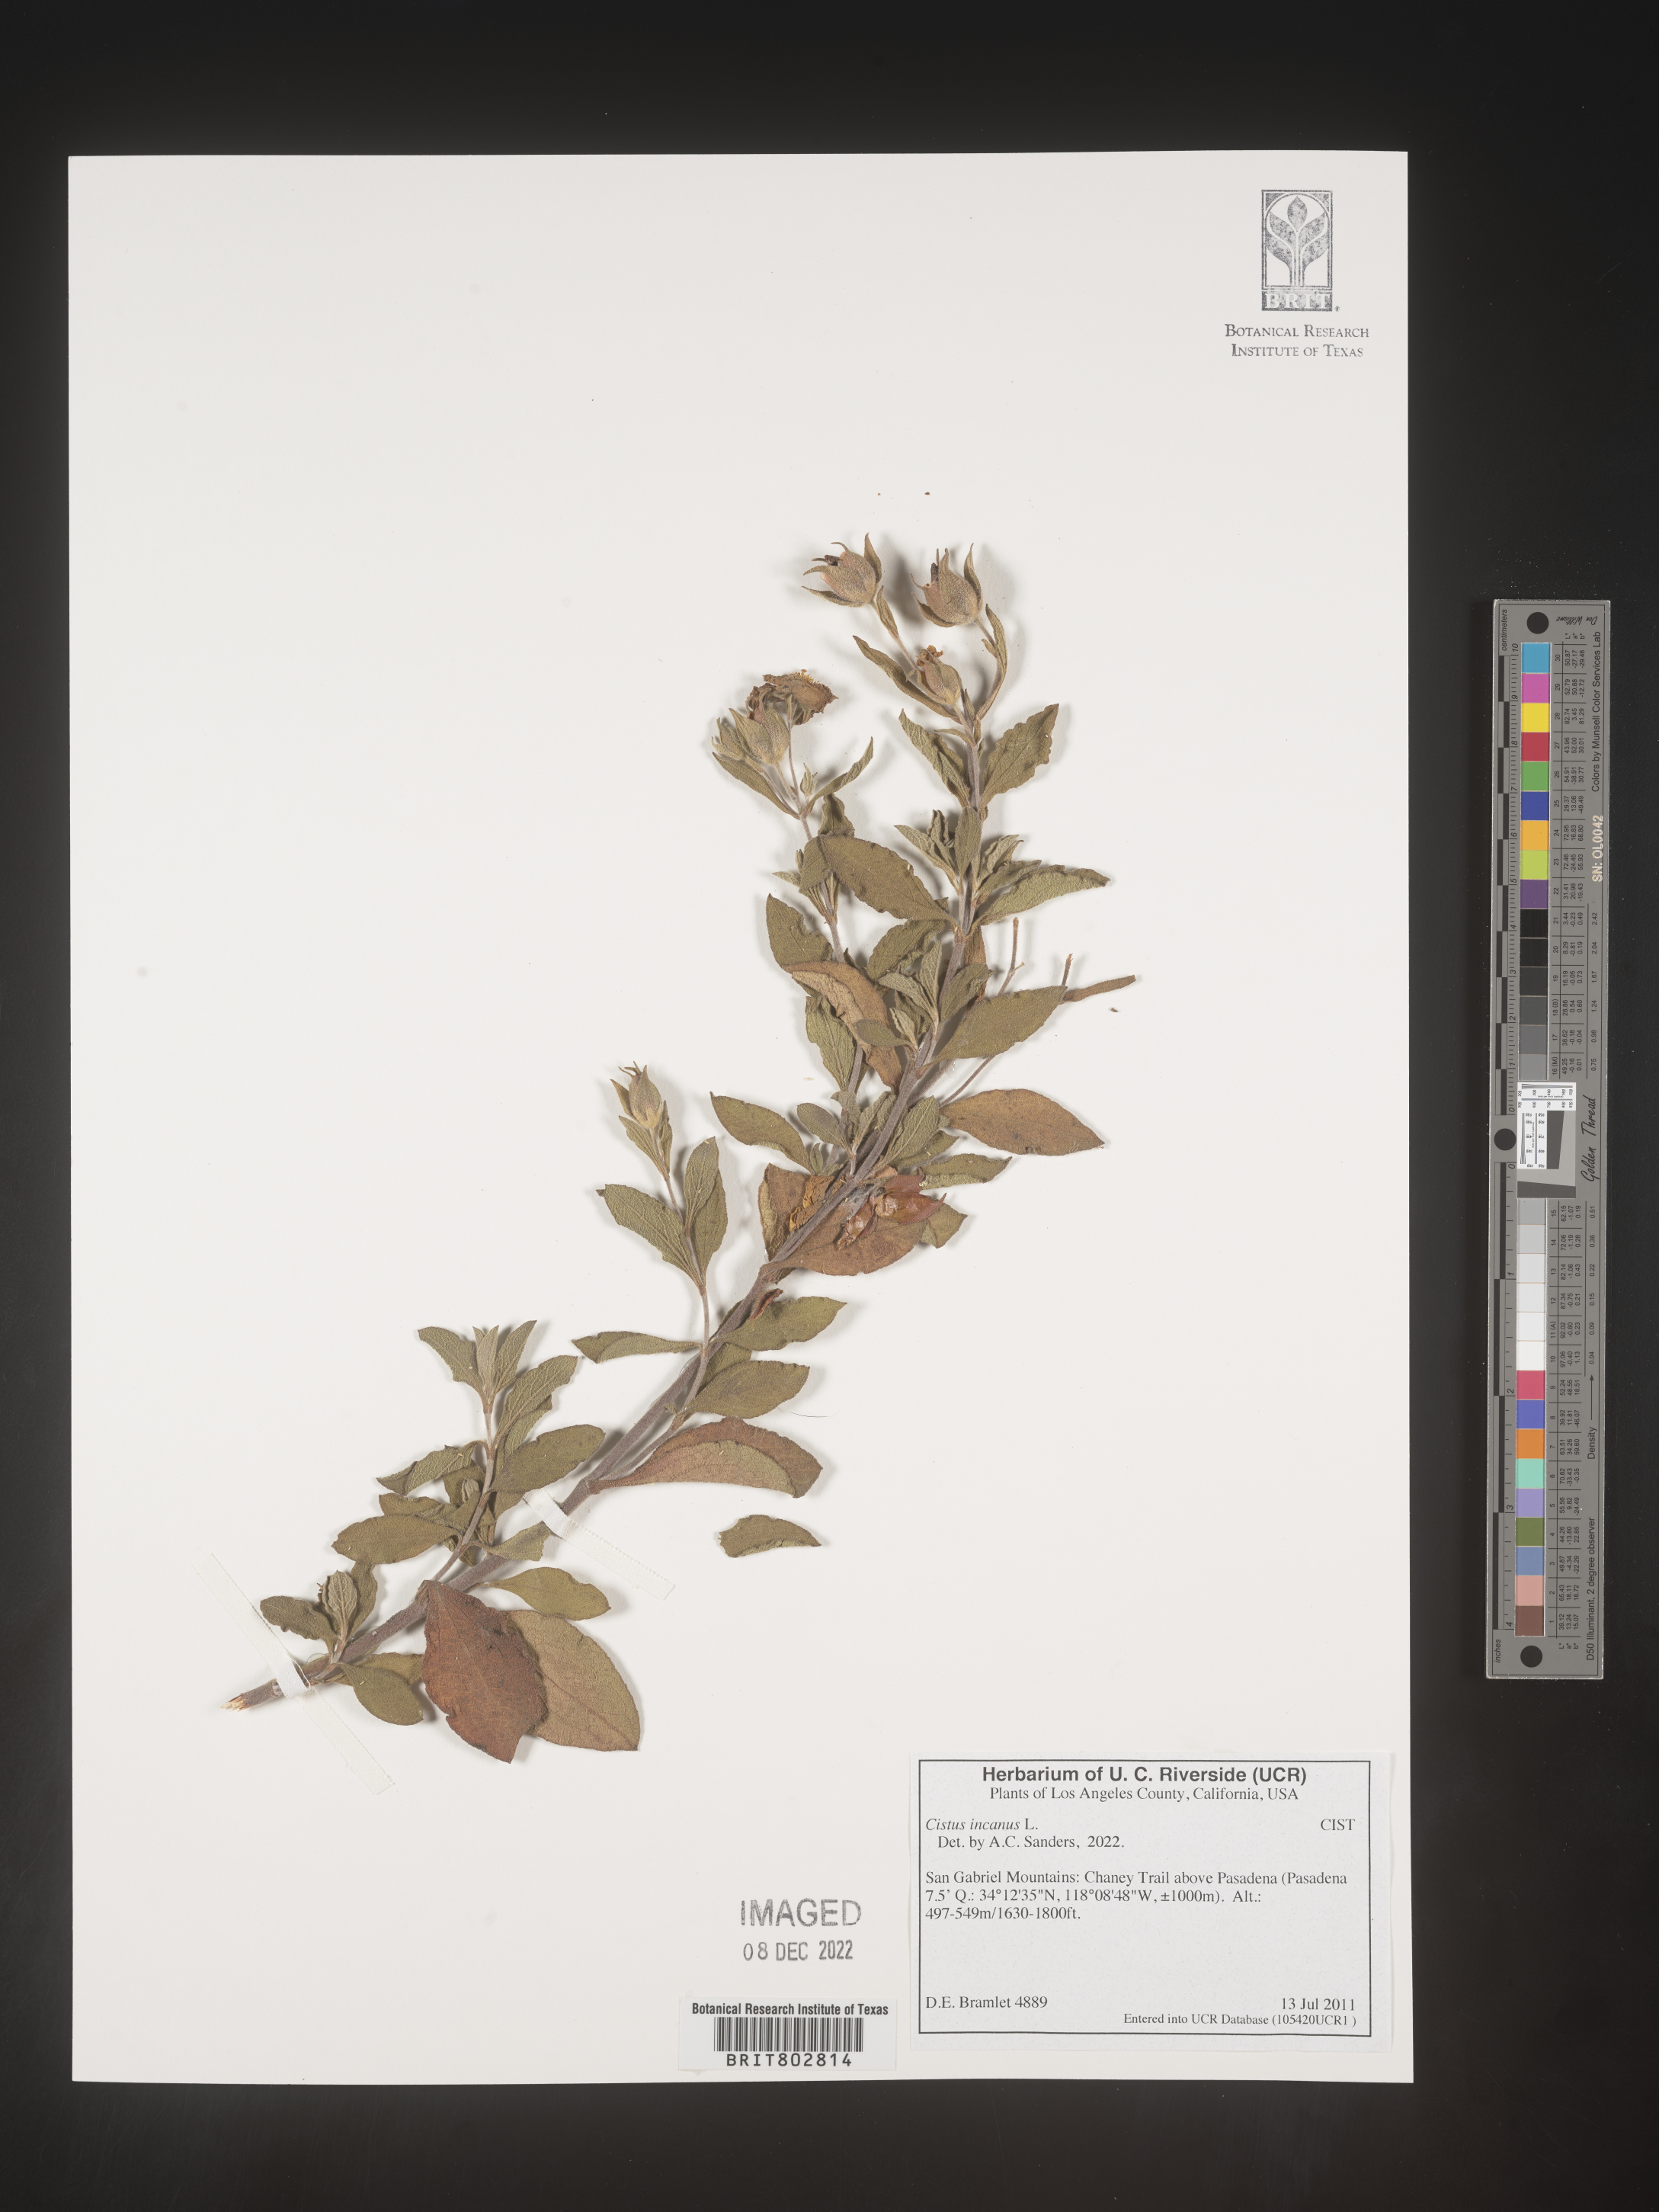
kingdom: Plantae
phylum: Tracheophyta
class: Magnoliopsida
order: Malvales
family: Cistaceae
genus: Cistus
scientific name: Cistus incanus
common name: Hairy rockrose
